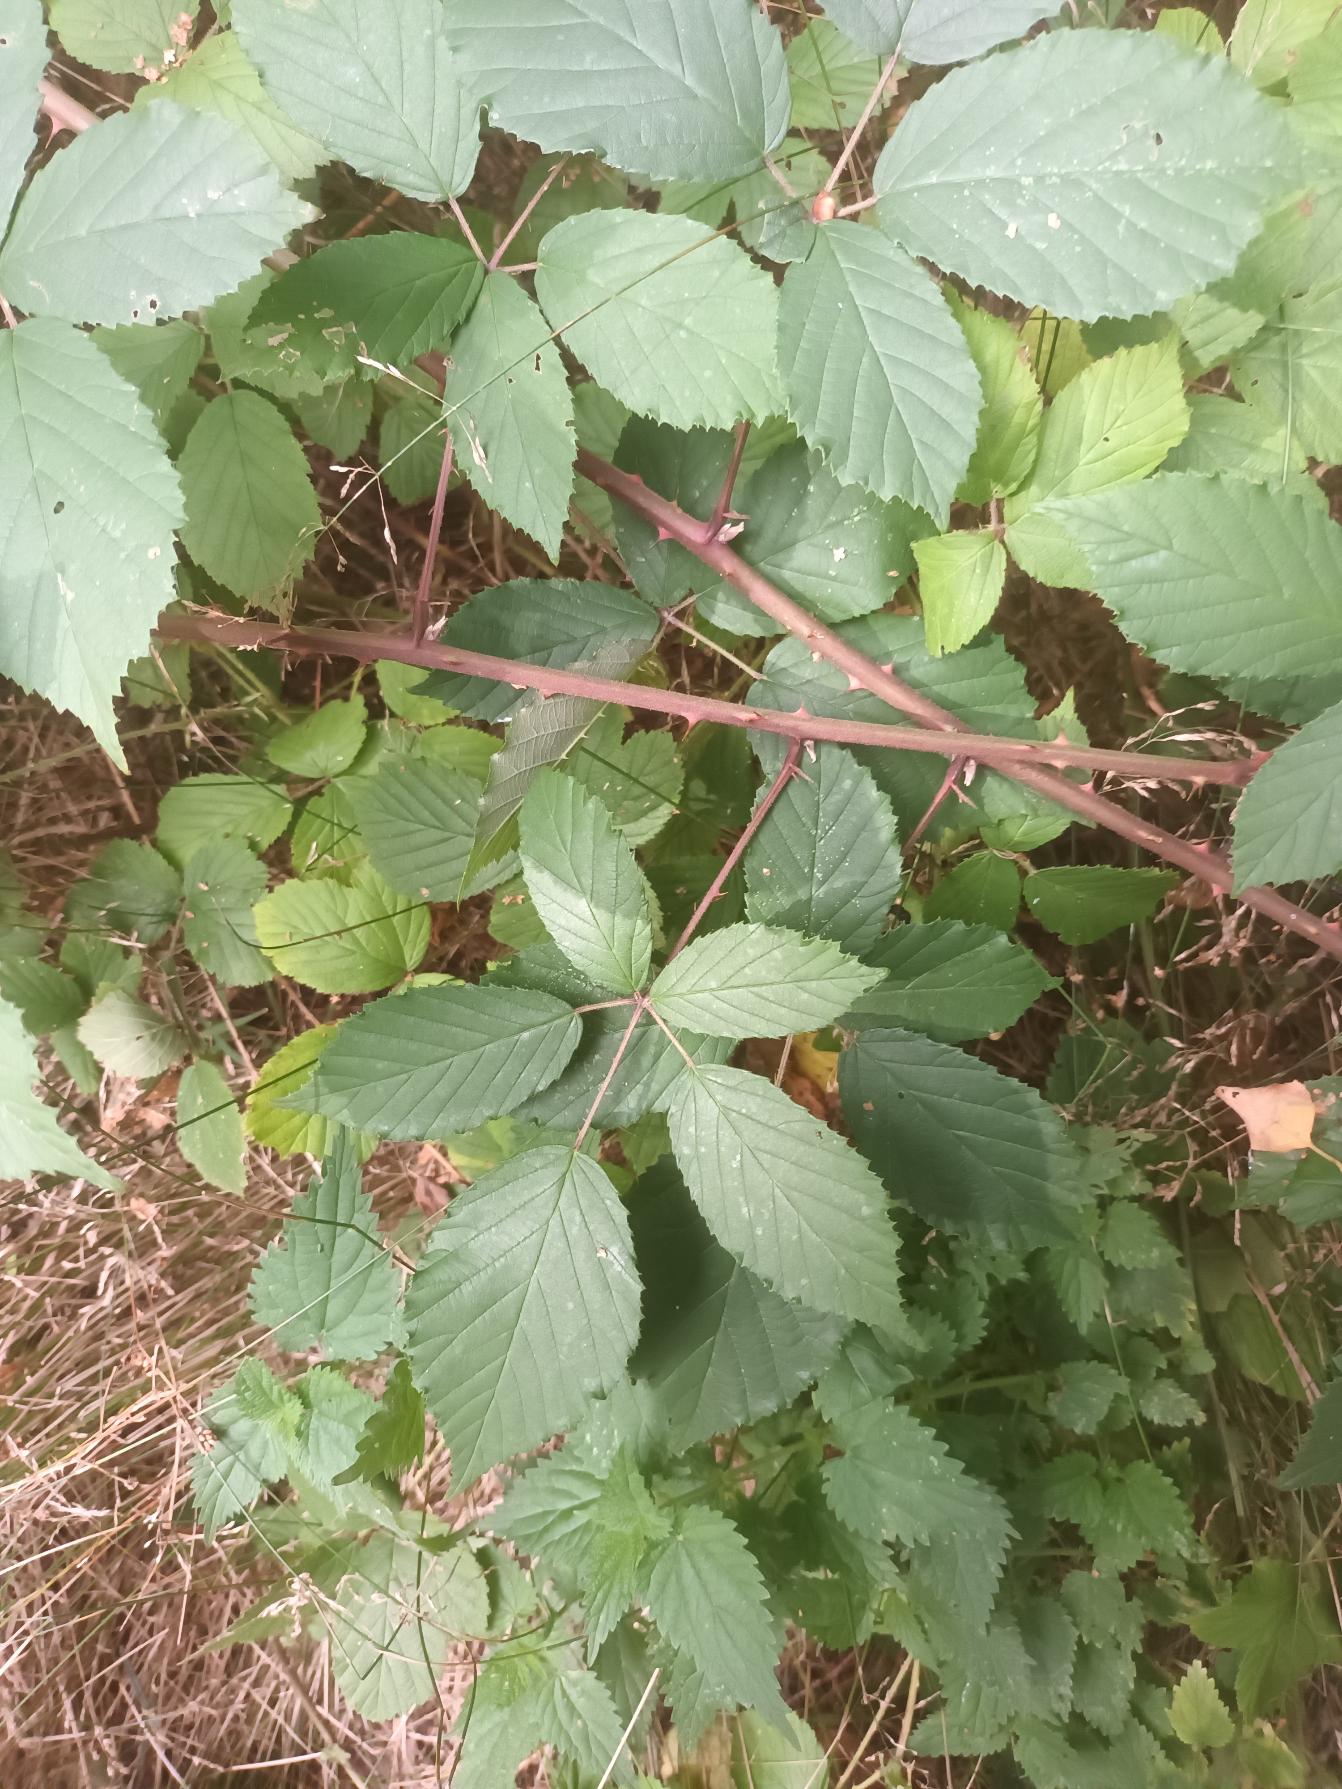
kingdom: Plantae
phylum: Tracheophyta
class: Magnoliopsida
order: Rosales
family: Rosaceae
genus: Rubus
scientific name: Rubus radula
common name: Rasperu brombær
